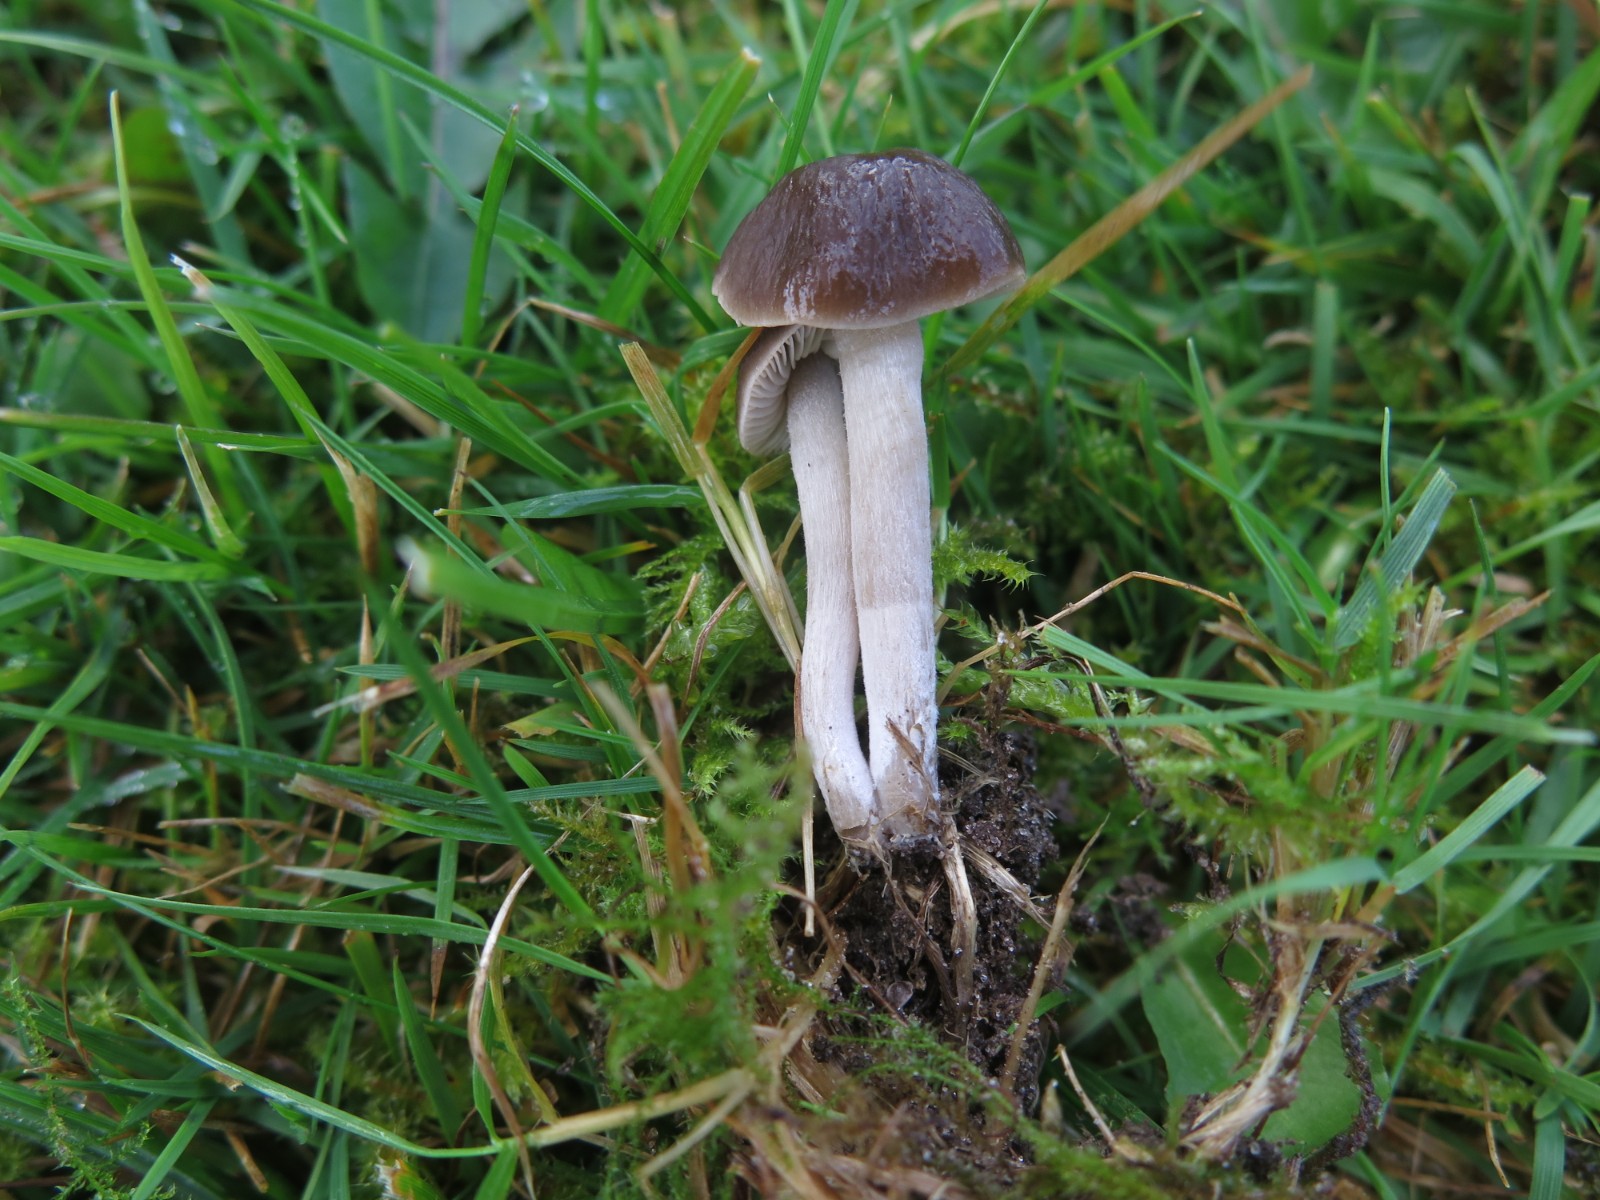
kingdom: Fungi
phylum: Basidiomycota
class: Agaricomycetes
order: Agaricales
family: Tricholomataceae
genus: Dermoloma
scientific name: Dermoloma cuneifolium
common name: eng-nonnehat
